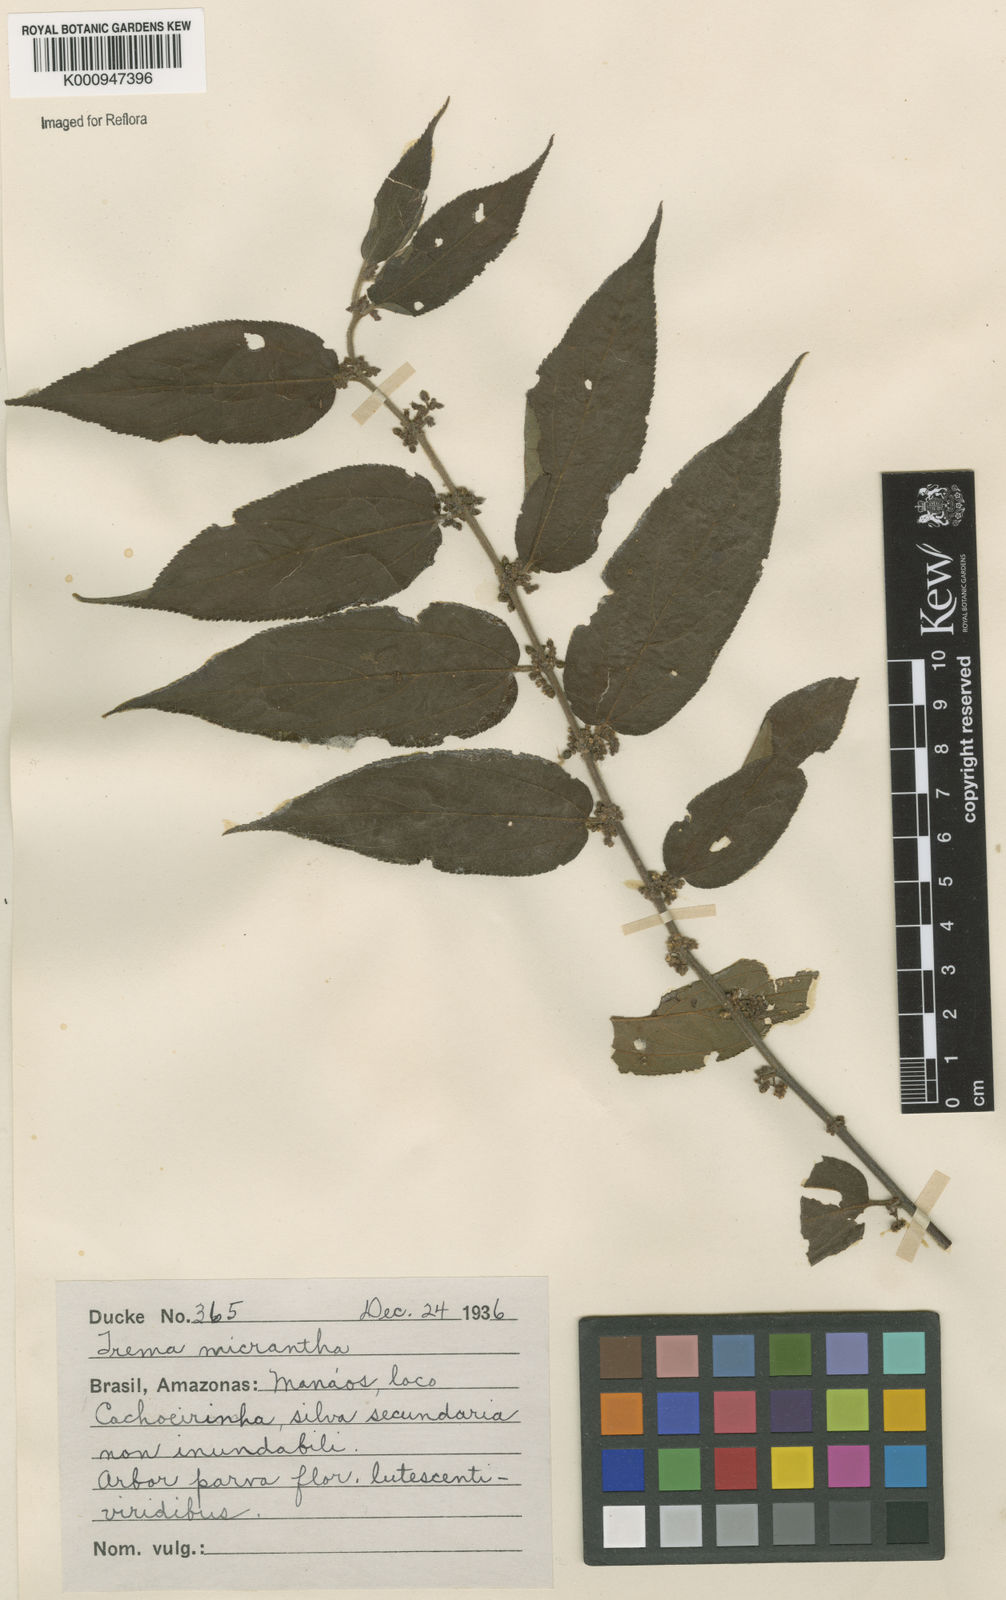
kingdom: Plantae
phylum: Tracheophyta
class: Magnoliopsida
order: Rosales
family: Cannabaceae
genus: Trema
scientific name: Trema micranthum
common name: Jamaican nettletree
